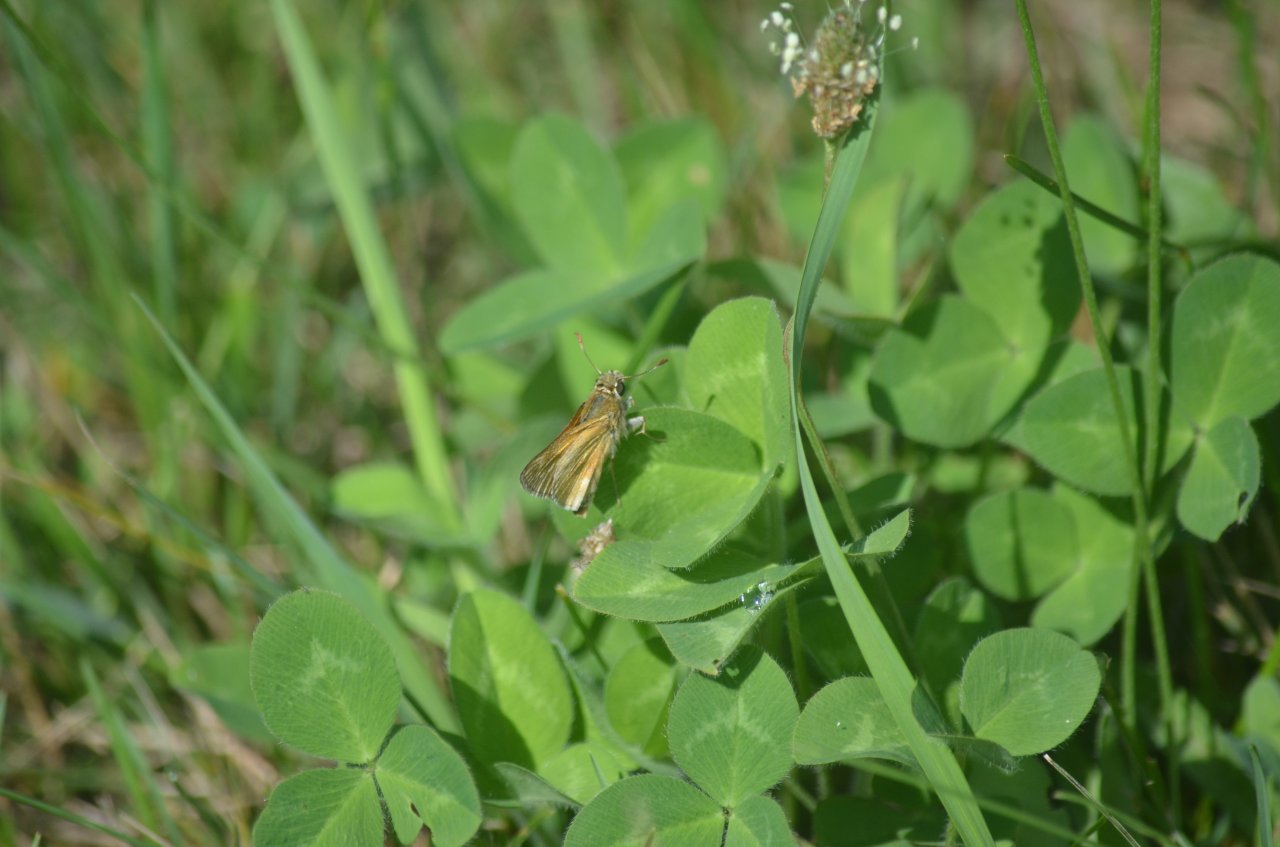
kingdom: Animalia
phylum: Arthropoda
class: Insecta
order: Lepidoptera
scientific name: Lepidoptera
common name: Butterflies
